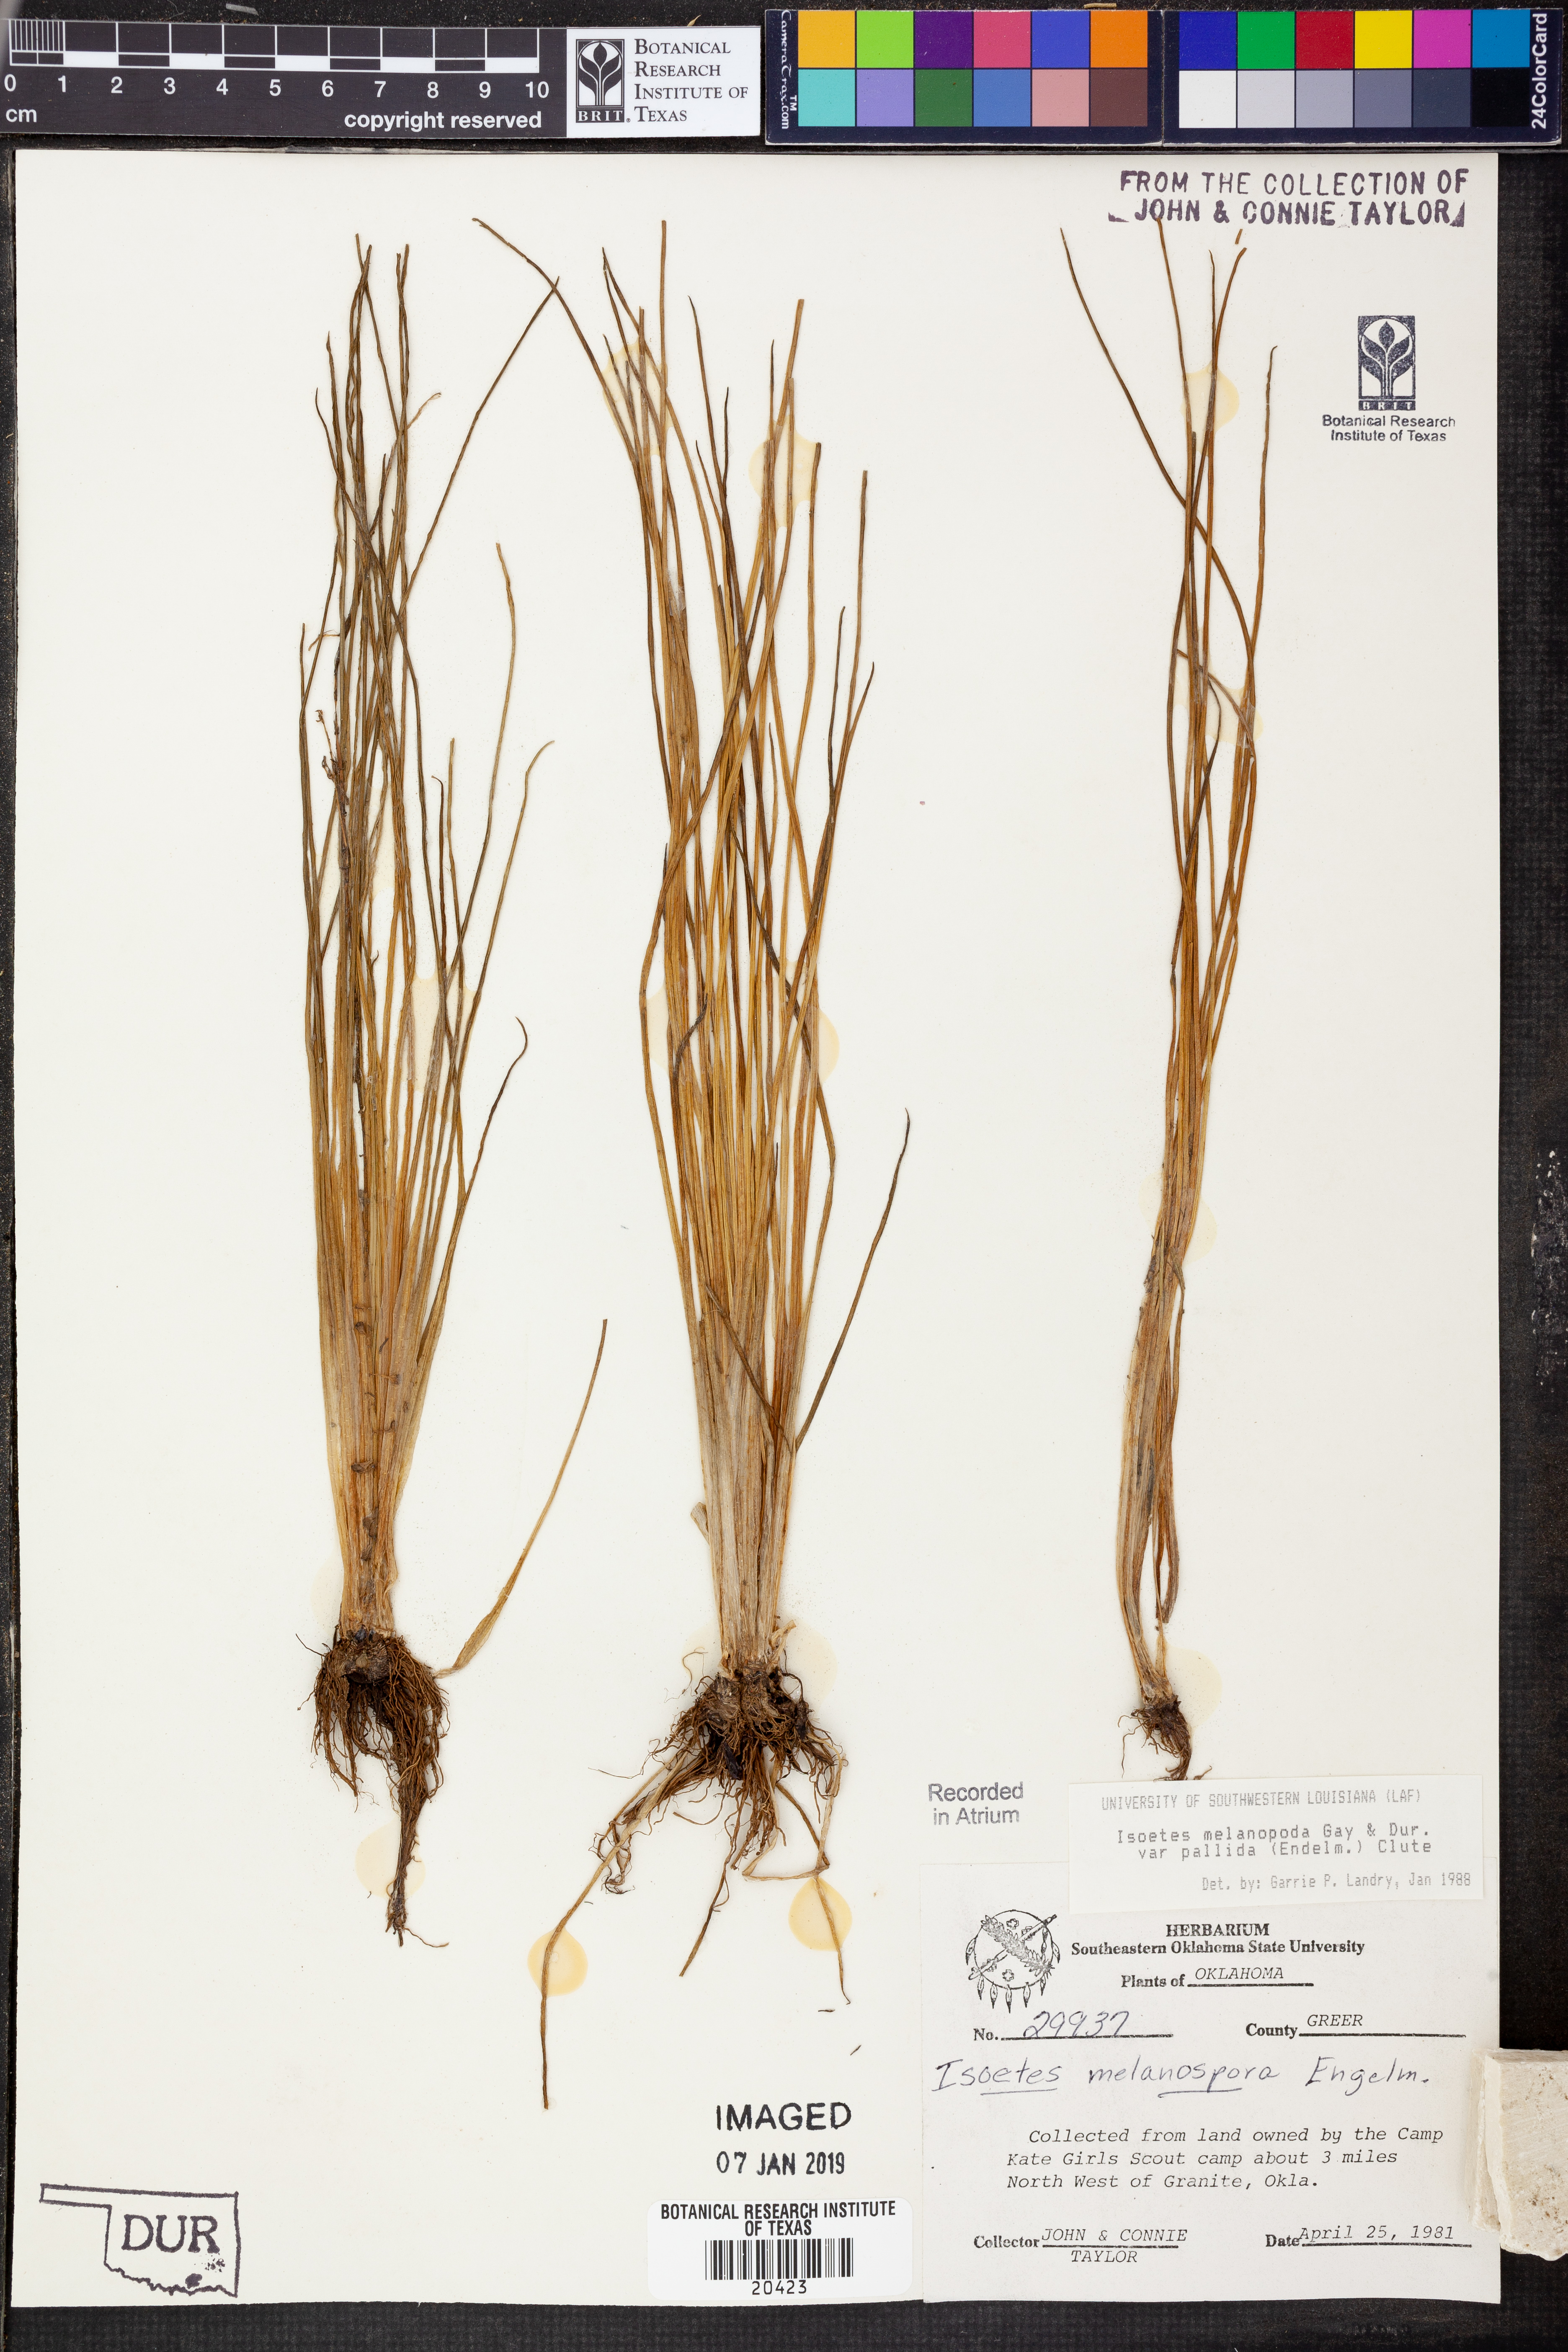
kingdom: Plantae
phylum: Tracheophyta
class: Lycopodiopsida
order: Isoetales
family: Isoetaceae
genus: Isoetes
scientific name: Isoetes melanopoda
